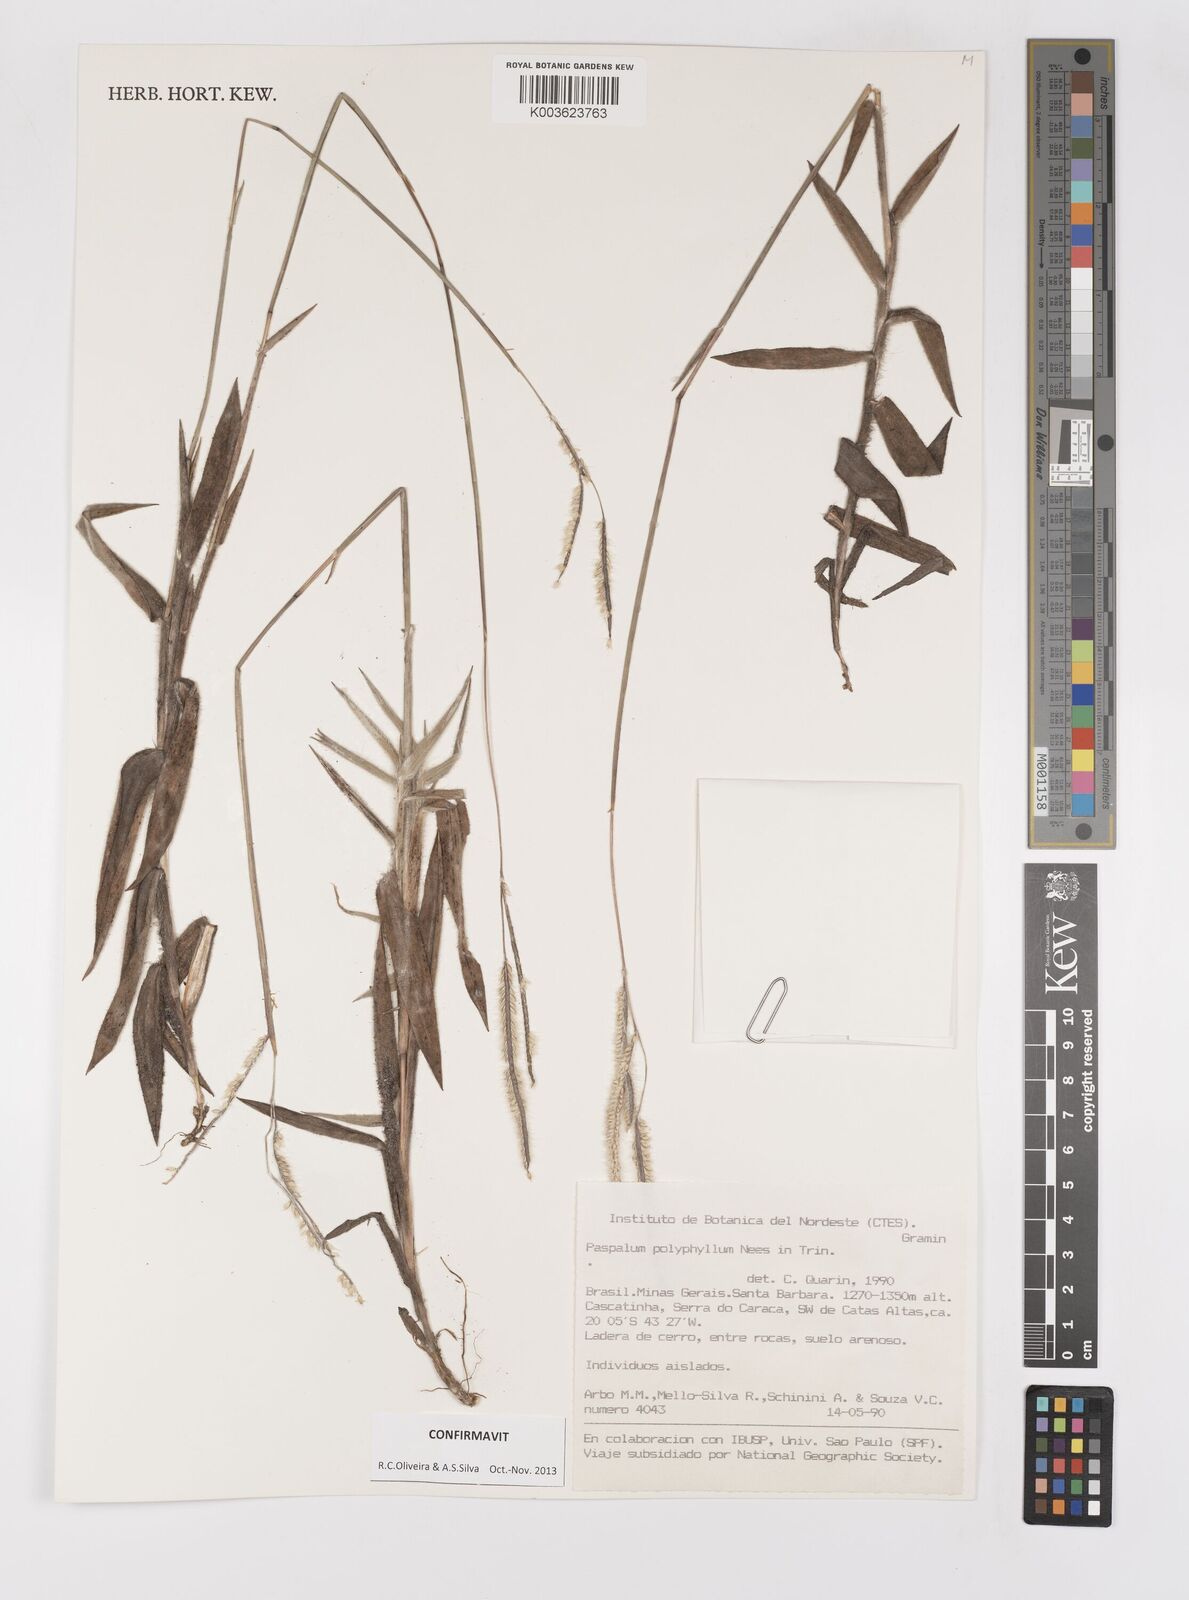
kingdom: Plantae
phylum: Tracheophyta
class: Liliopsida
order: Poales
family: Poaceae
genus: Paspalum
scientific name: Paspalum polyphyllum
